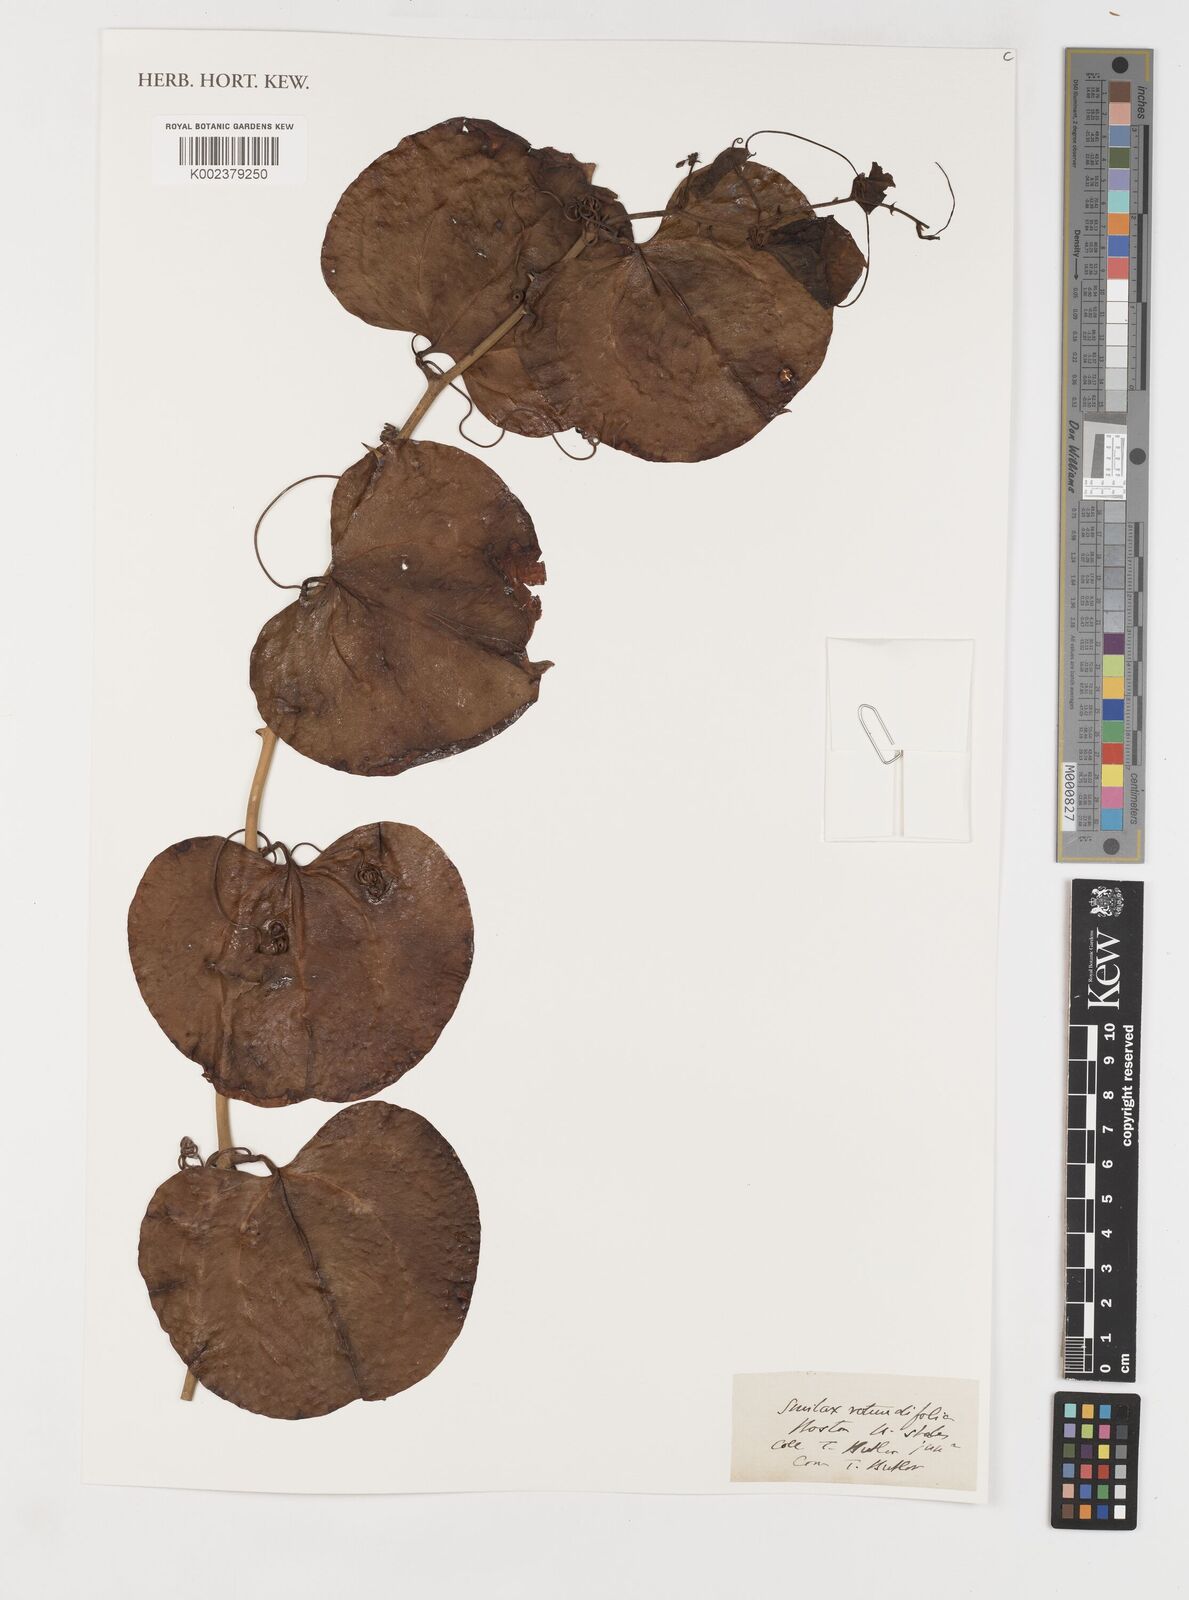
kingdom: Plantae
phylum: Tracheophyta
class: Liliopsida
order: Liliales
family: Smilacaceae
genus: Smilax
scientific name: Smilax rotundifolia
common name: Bullbriar
